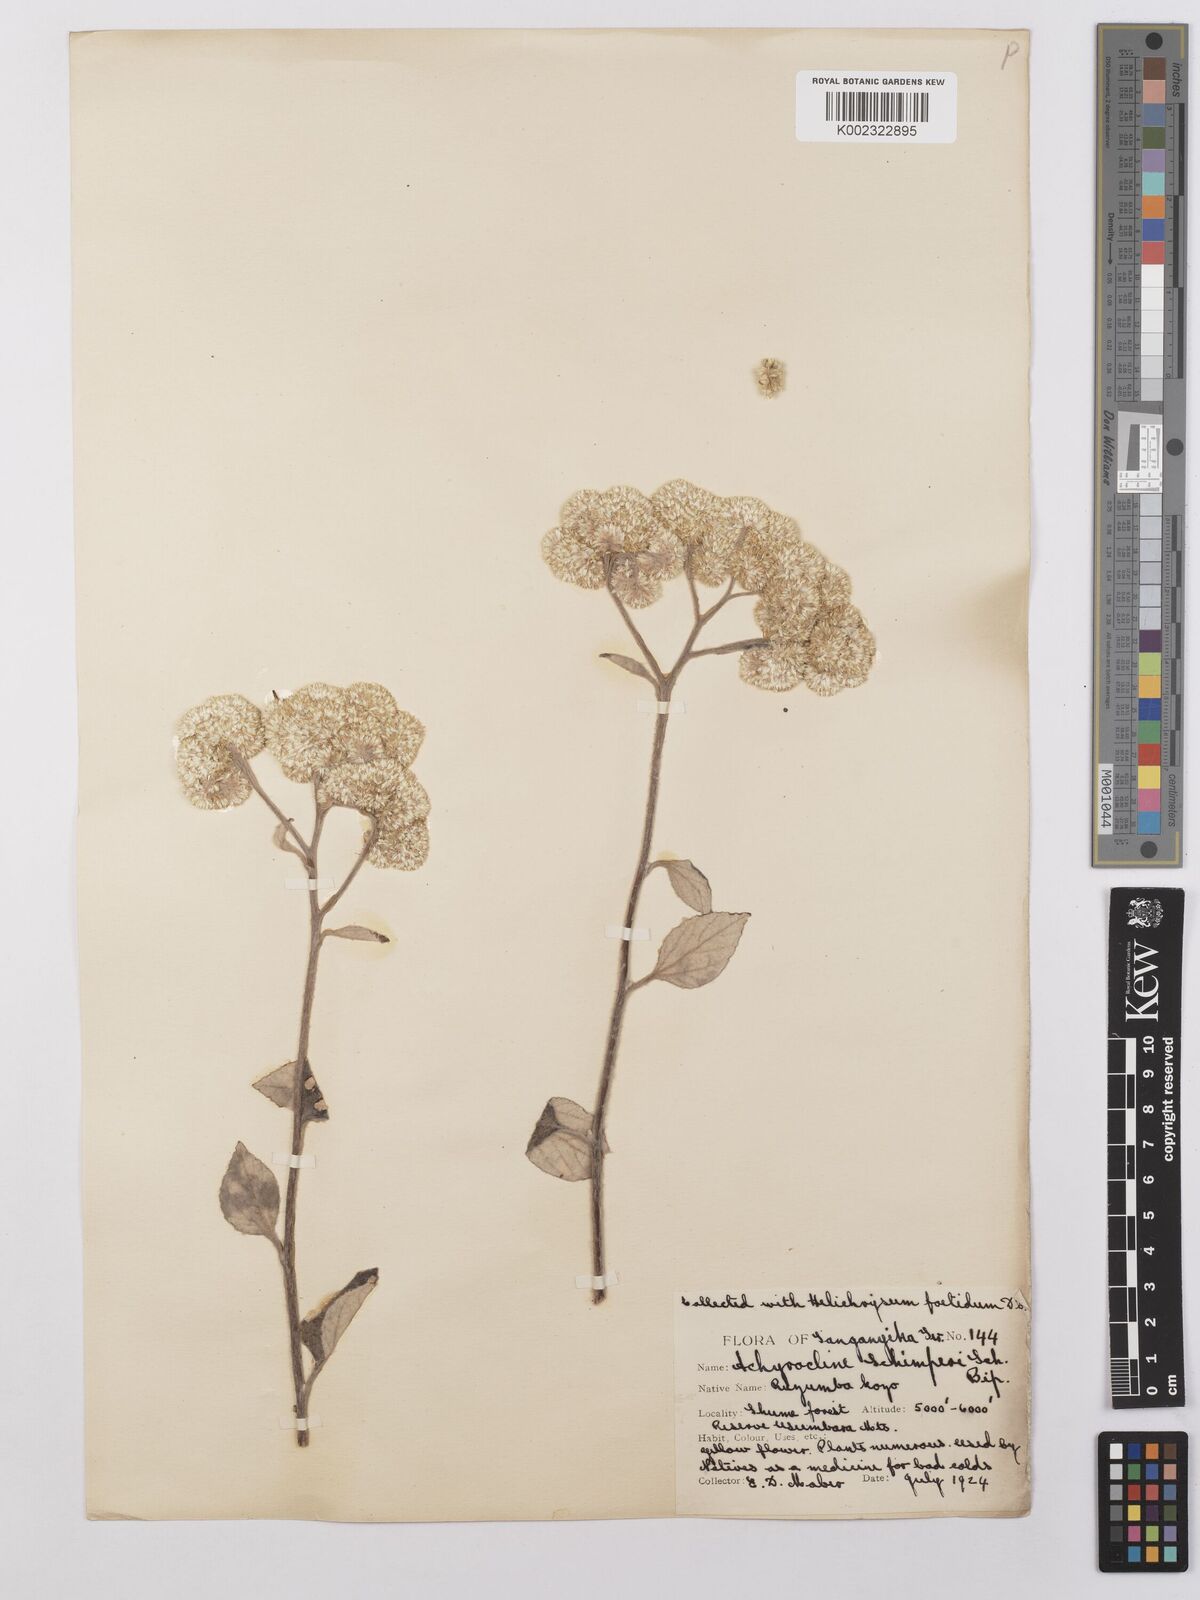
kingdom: Plantae
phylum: Tracheophyta
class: Magnoliopsida
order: Asterales
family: Asteraceae
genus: Helichrysum
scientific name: Helichrysum schimperi
